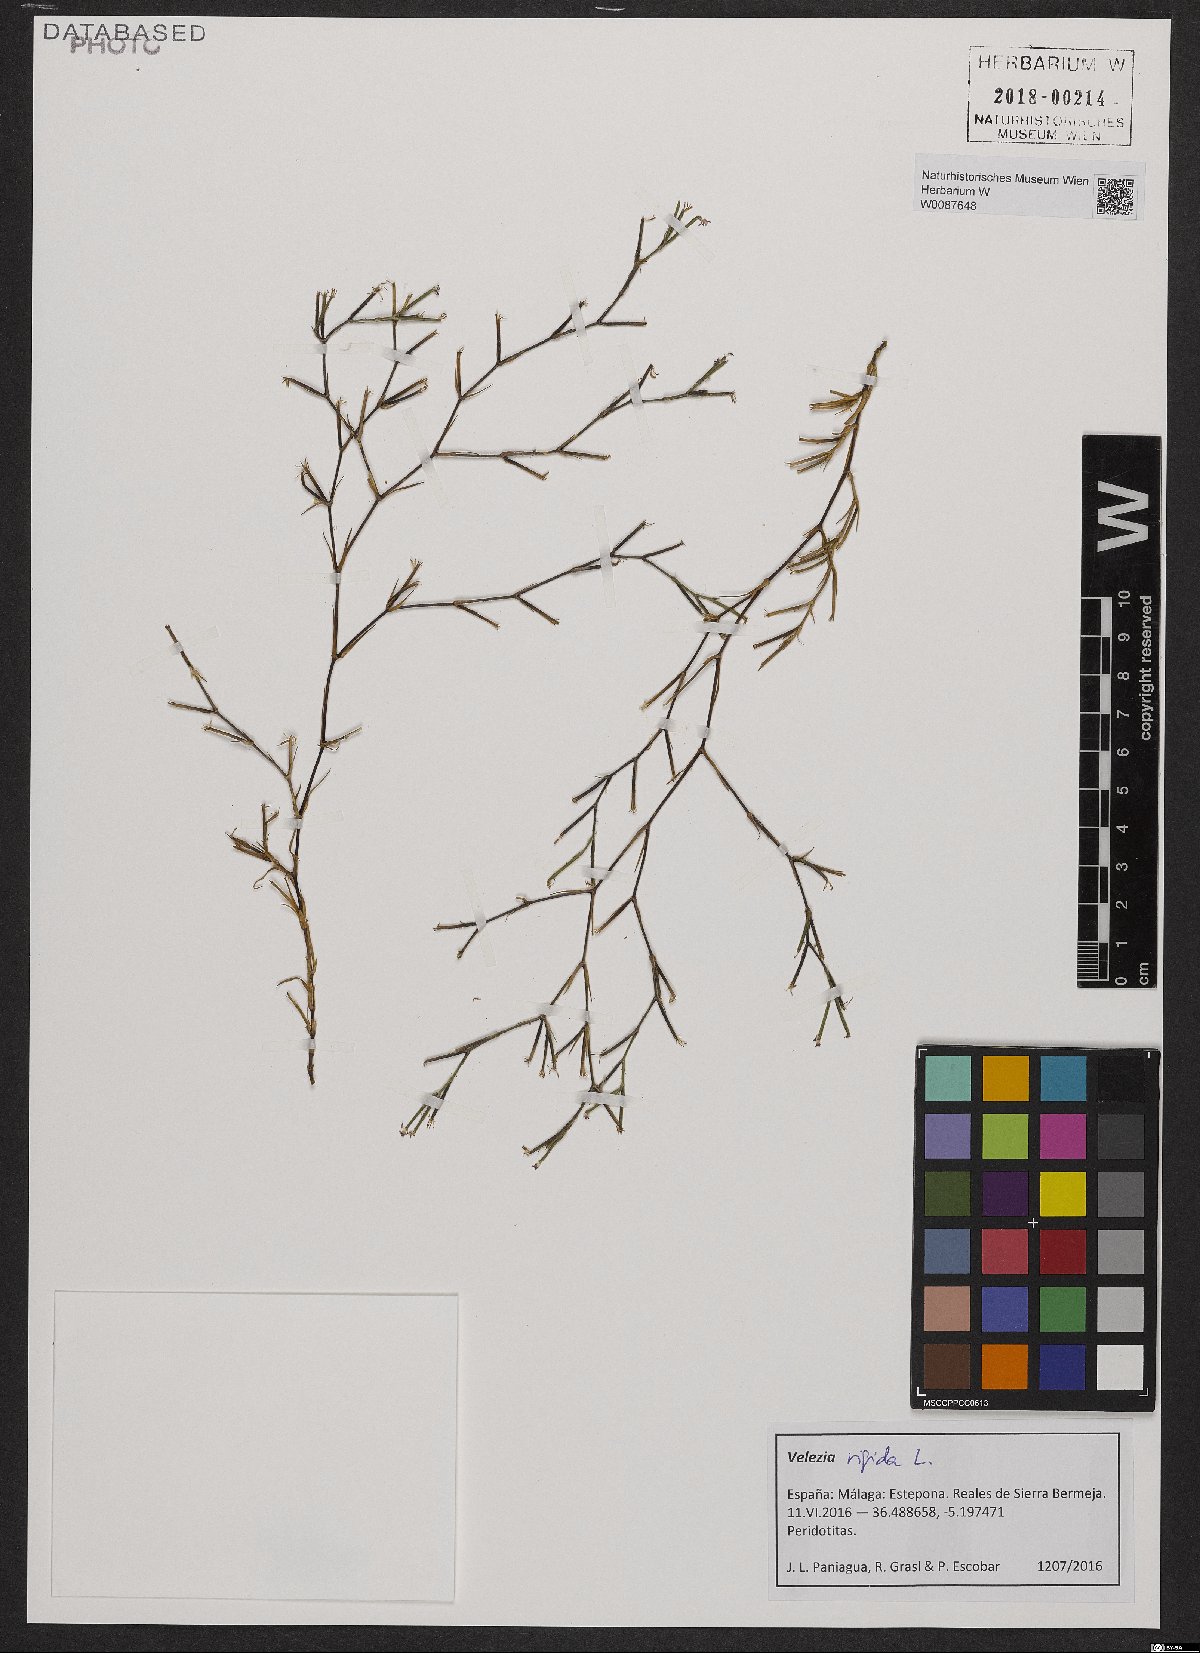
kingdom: Plantae
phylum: Tracheophyta
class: Magnoliopsida
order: Caryophyllales
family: Caryophyllaceae
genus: Dianthus
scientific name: Dianthus nudiflorus
